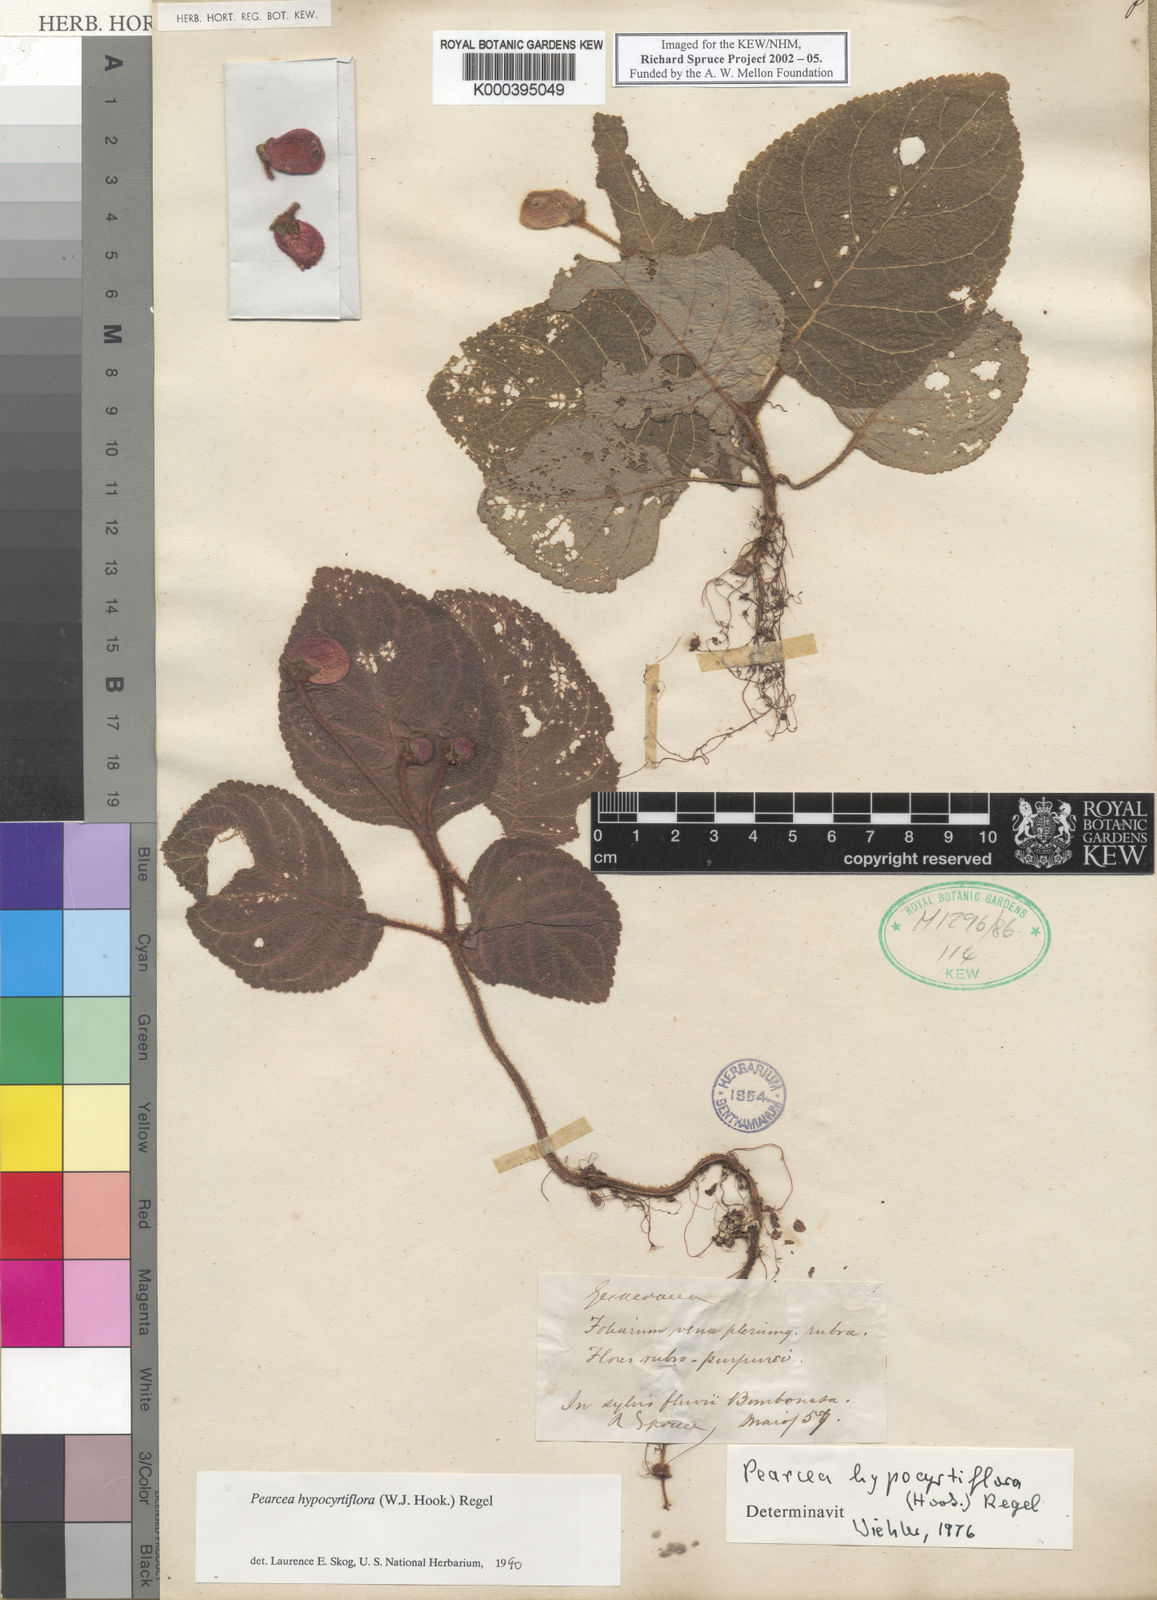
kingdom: Plantae
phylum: Tracheophyta
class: Magnoliopsida
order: Lamiales
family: Gesneriaceae
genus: Pearcea
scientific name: Pearcea reticulata
